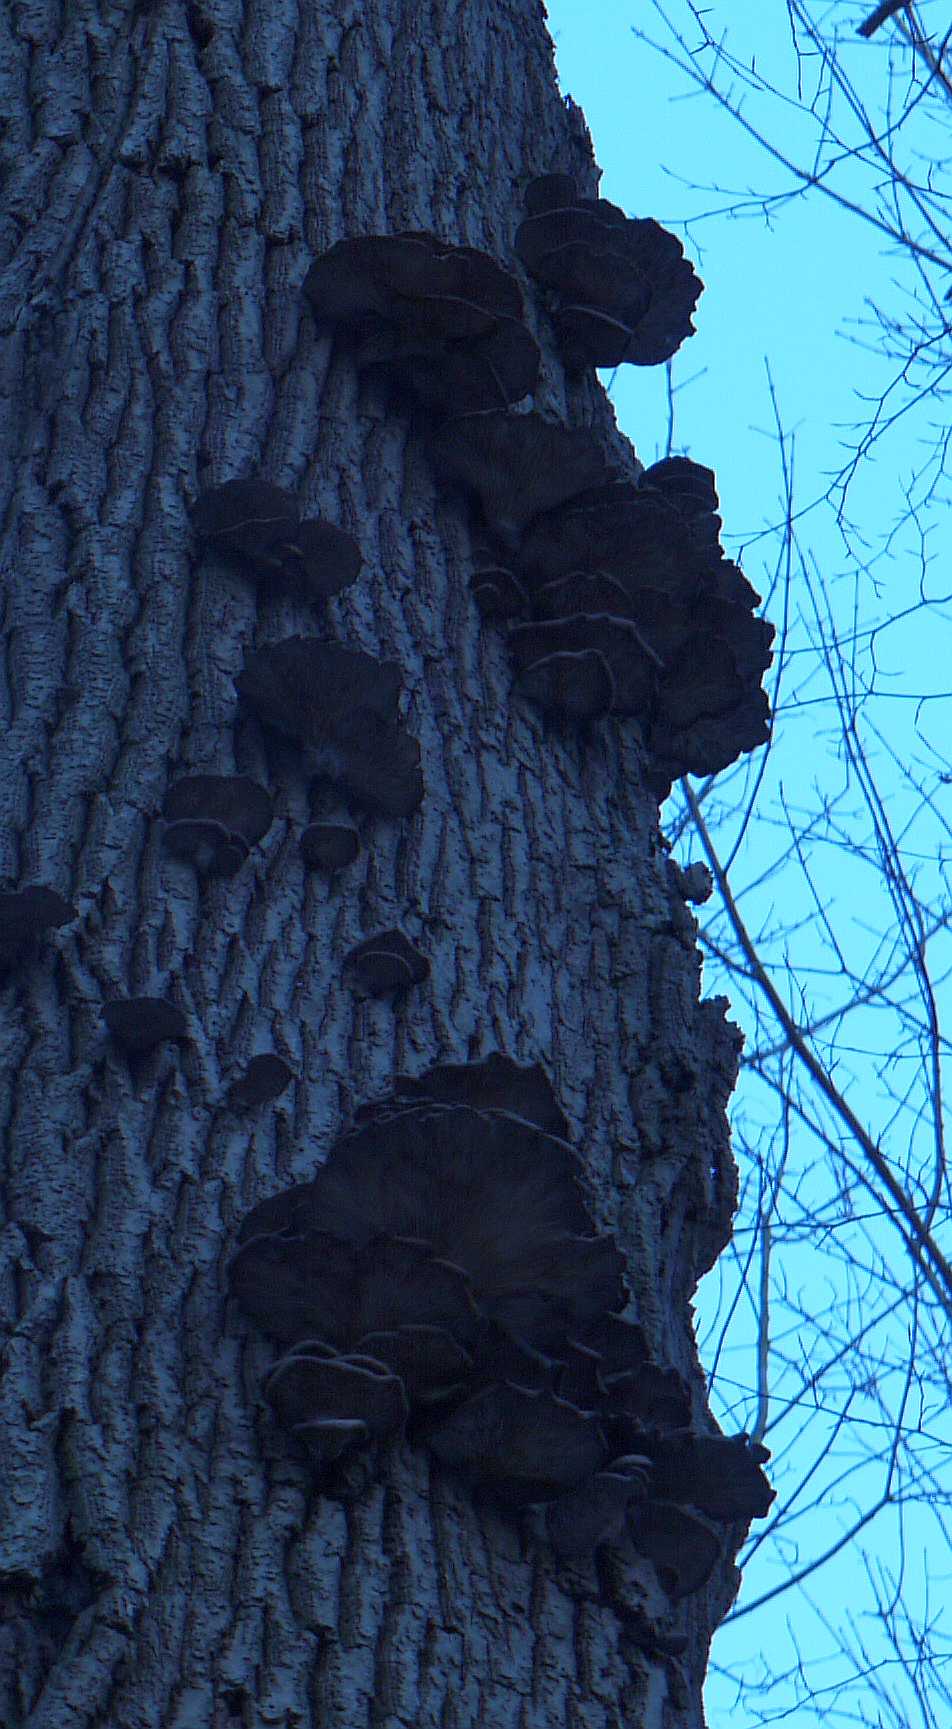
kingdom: Fungi
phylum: Basidiomycota
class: Agaricomycetes
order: Agaricales
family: Pleurotaceae
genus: Pleurotus
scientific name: Pleurotus ostreatus
